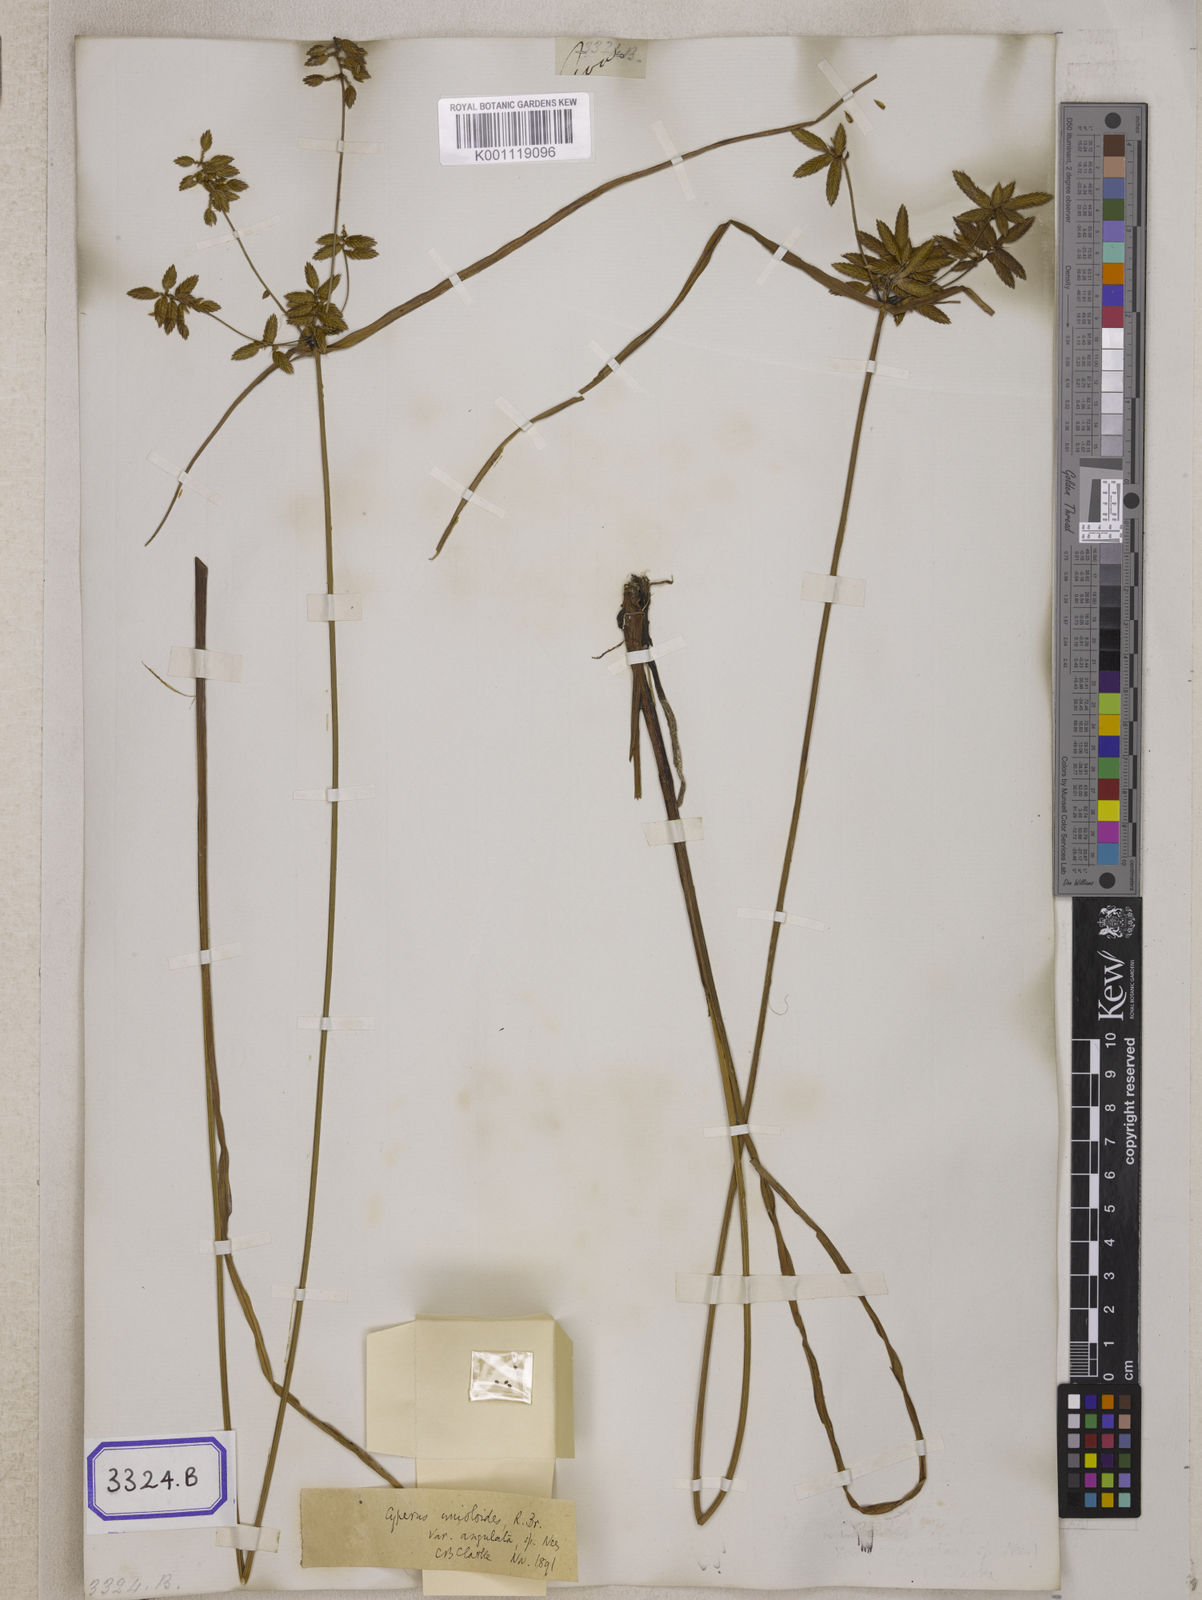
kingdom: Plantae
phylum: Tracheophyta
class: Liliopsida
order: Poales
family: Cyperaceae
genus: Cyperus
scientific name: Cyperus
